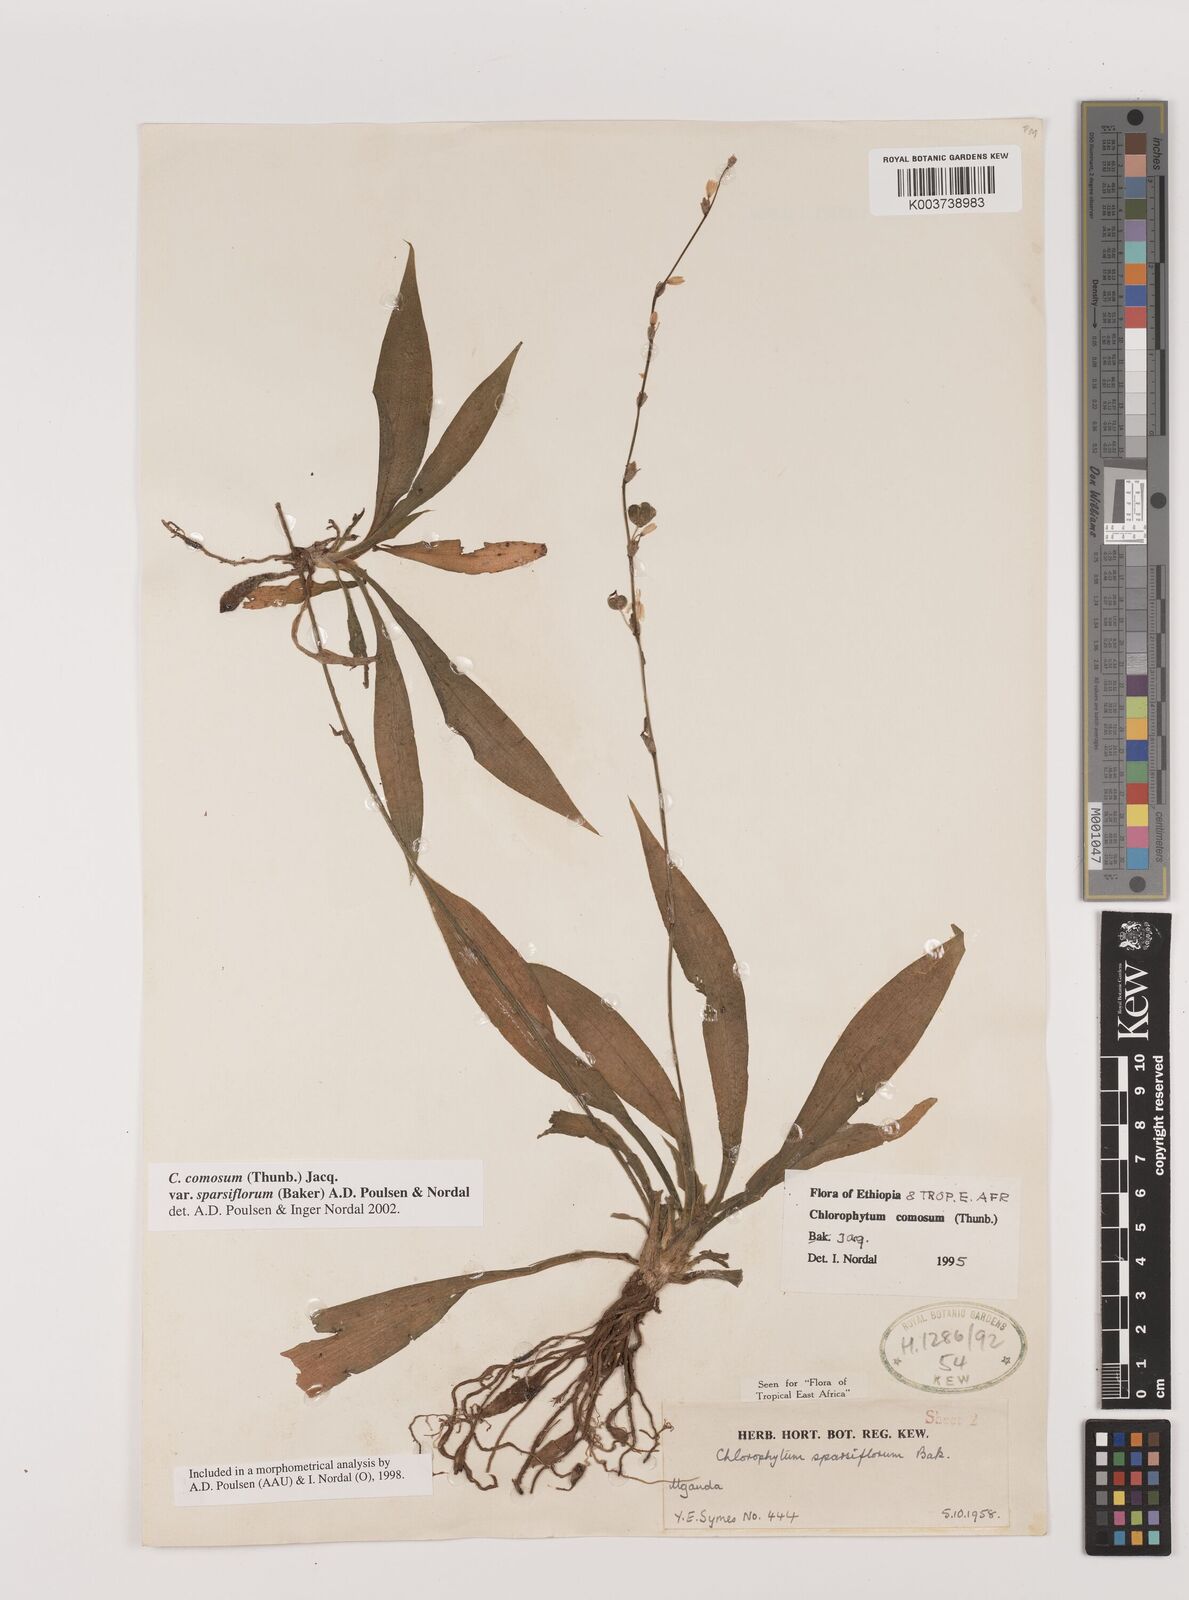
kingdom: Plantae
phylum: Tracheophyta
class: Liliopsida
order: Asparagales
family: Asparagaceae
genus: Chlorophytum
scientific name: Chlorophytum sparsiflorum
